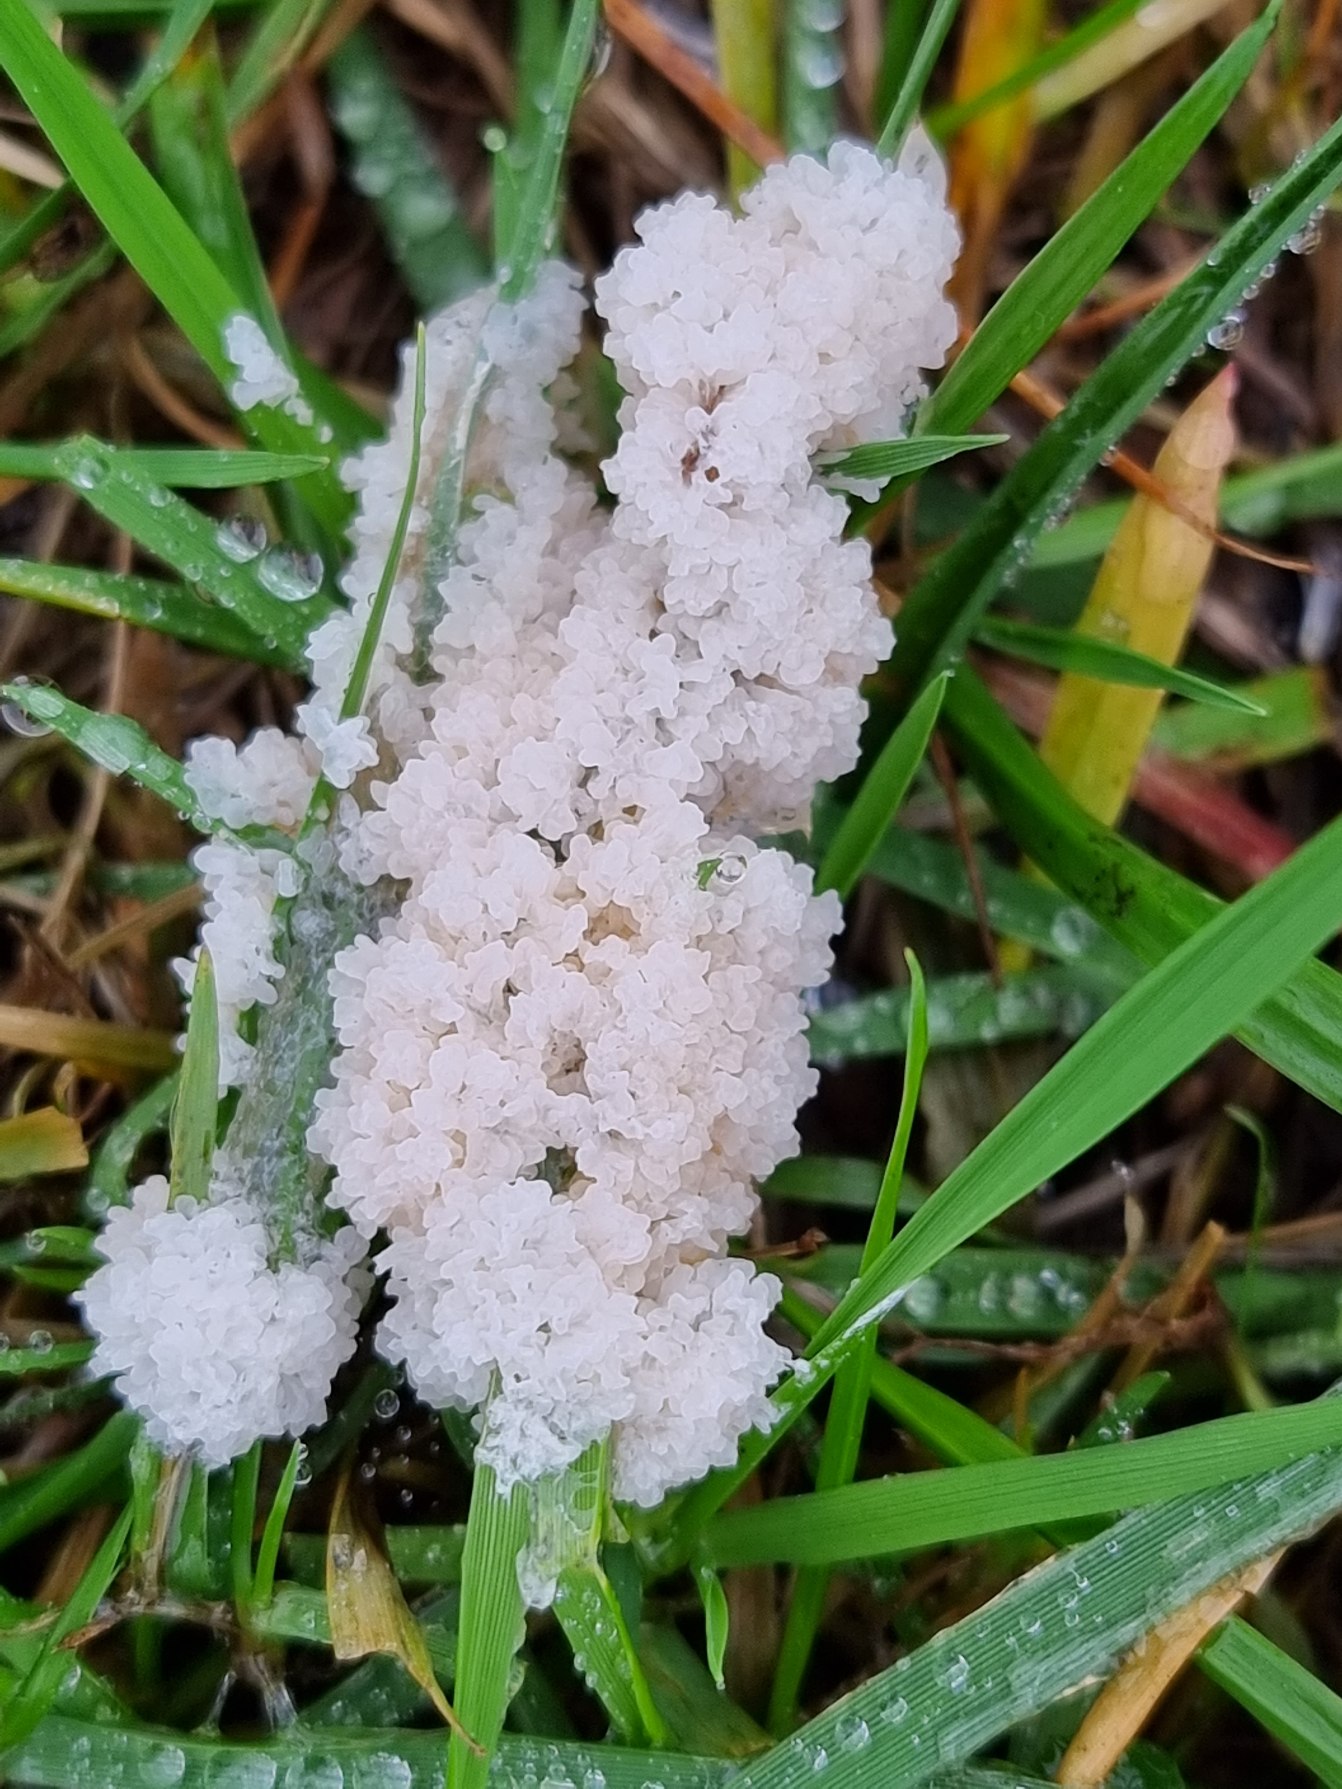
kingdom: Protozoa
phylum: Mycetozoa
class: Myxomycetes
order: Physarales
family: Didymiaceae
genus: Mucilago
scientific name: Mucilago crustacea
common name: Urteskum
